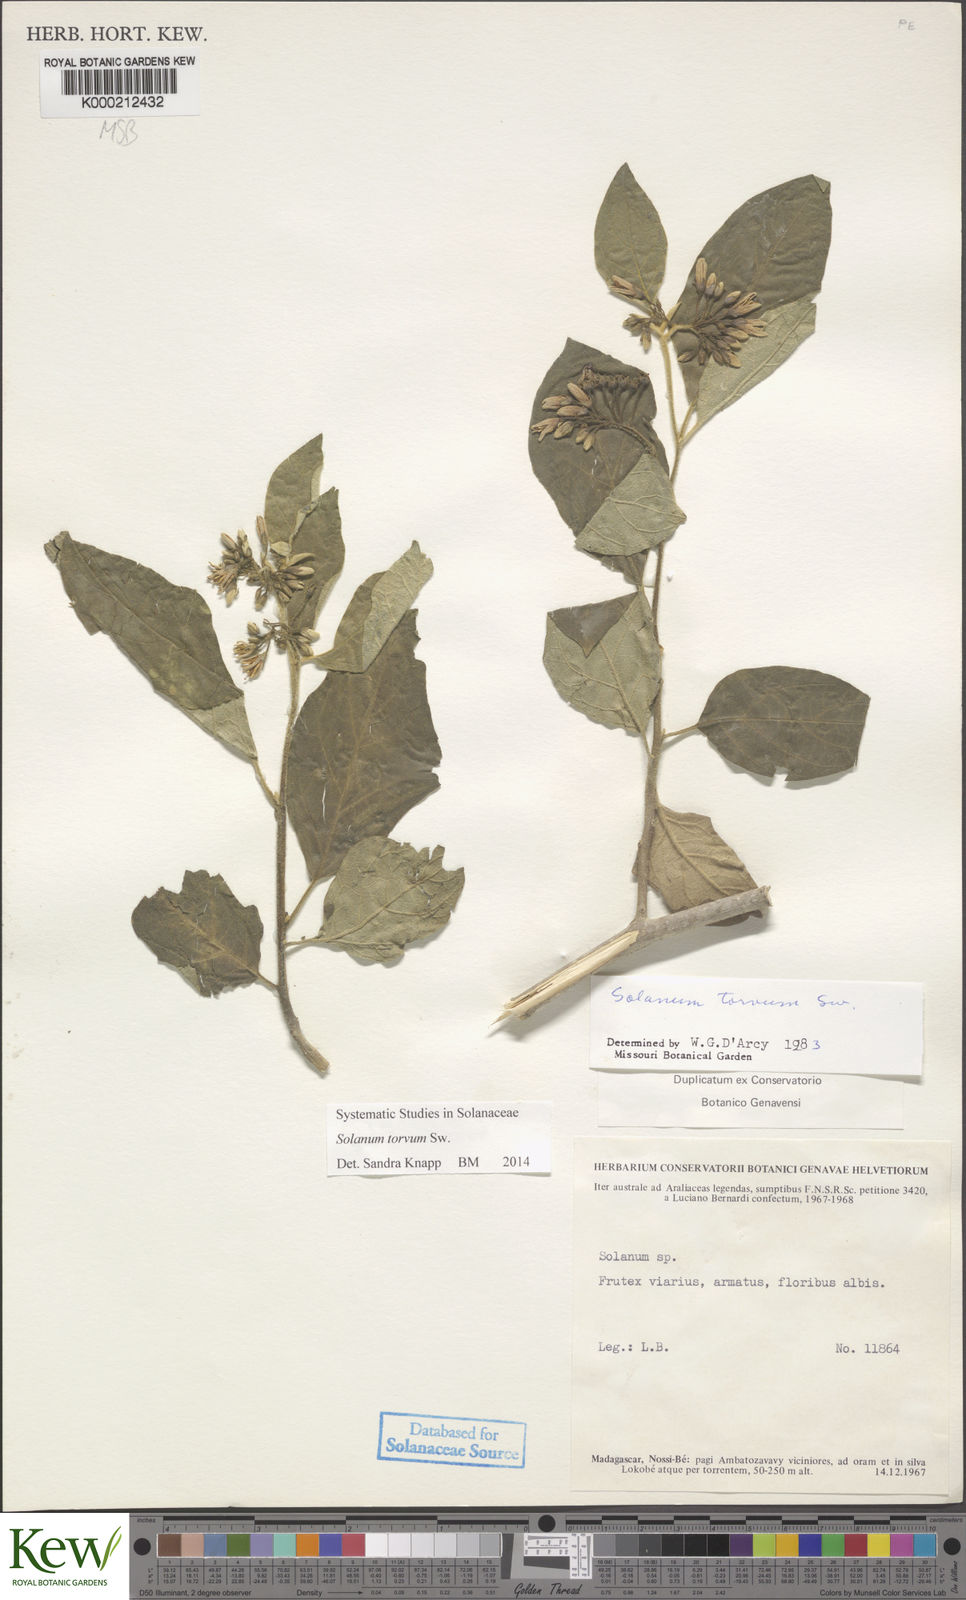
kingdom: Plantae
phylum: Tracheophyta
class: Magnoliopsida
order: Solanales
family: Solanaceae
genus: Solanum
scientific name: Solanum torvum
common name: Turkey berry
